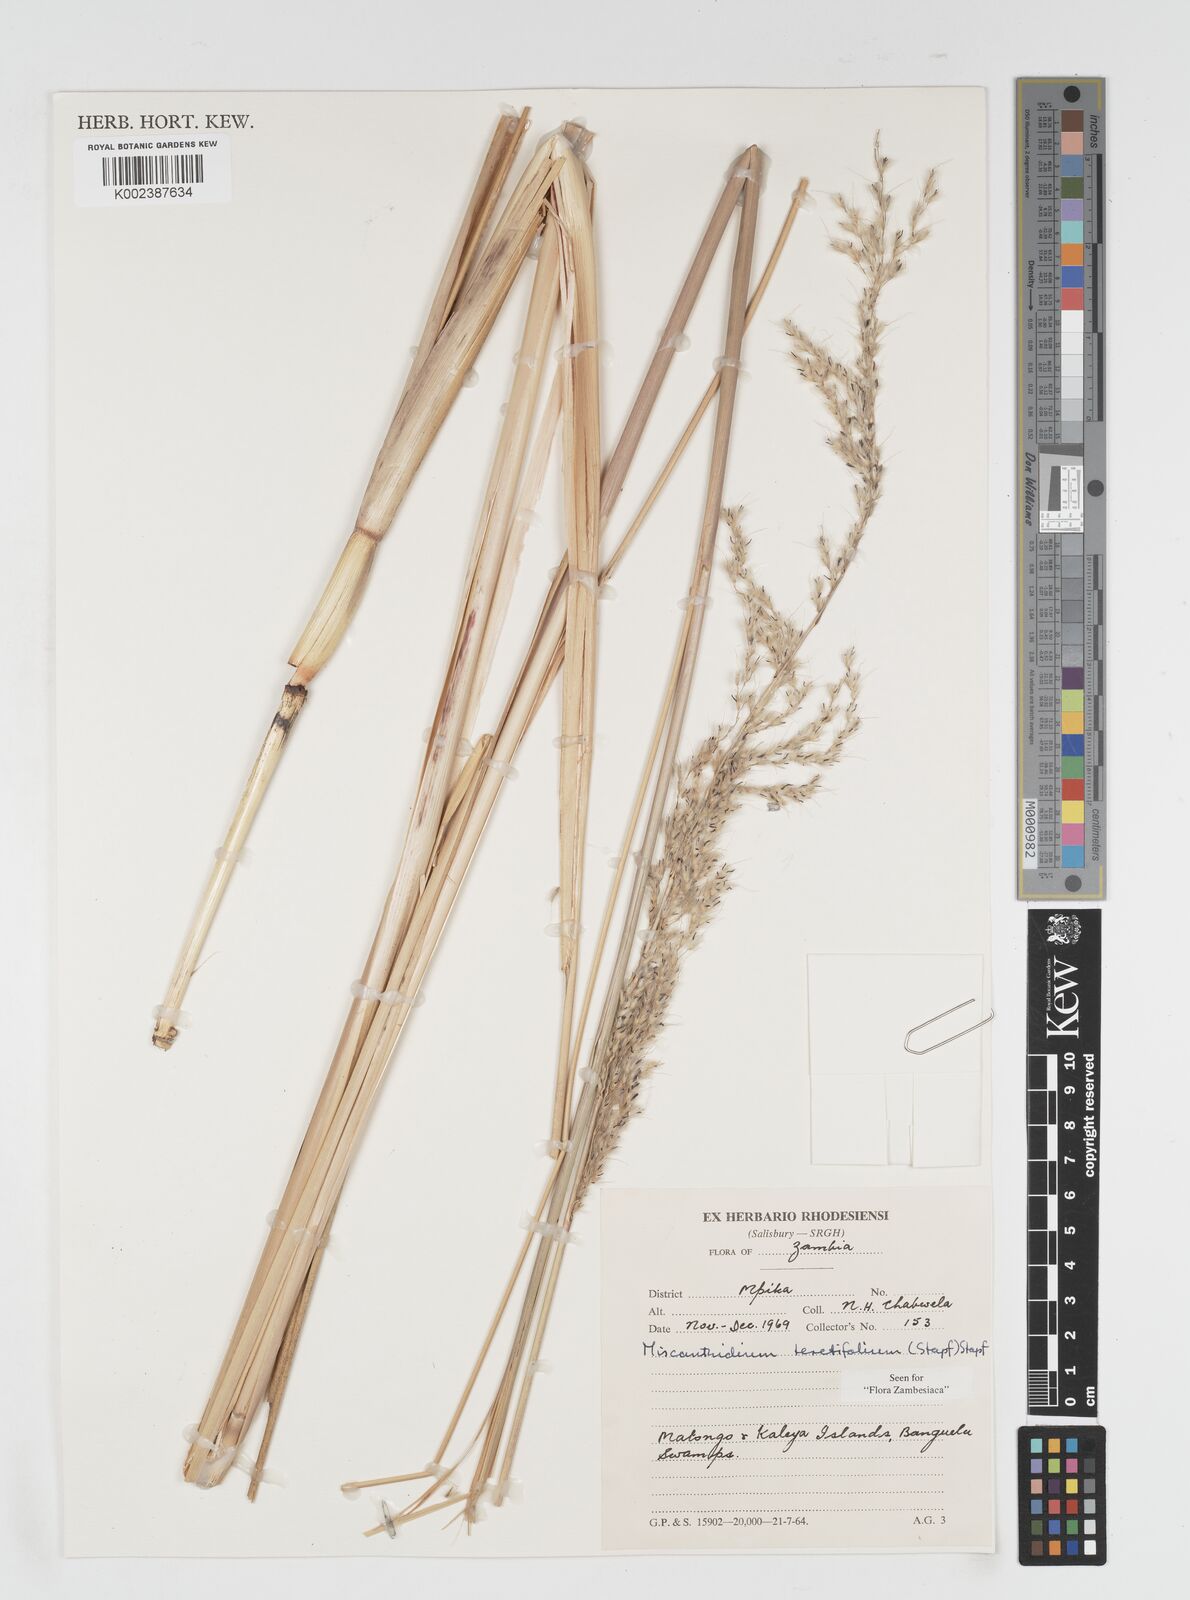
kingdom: Plantae
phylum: Tracheophyta
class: Liliopsida
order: Poales
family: Poaceae
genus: Miscanthidium
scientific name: Miscanthidium junceum
